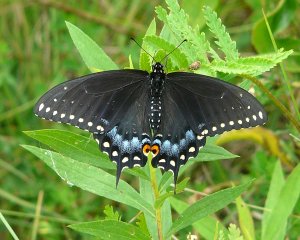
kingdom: Animalia
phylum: Arthropoda
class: Insecta
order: Lepidoptera
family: Papilionidae
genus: Papilio
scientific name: Papilio polyxenes
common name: Black Swallowtail
